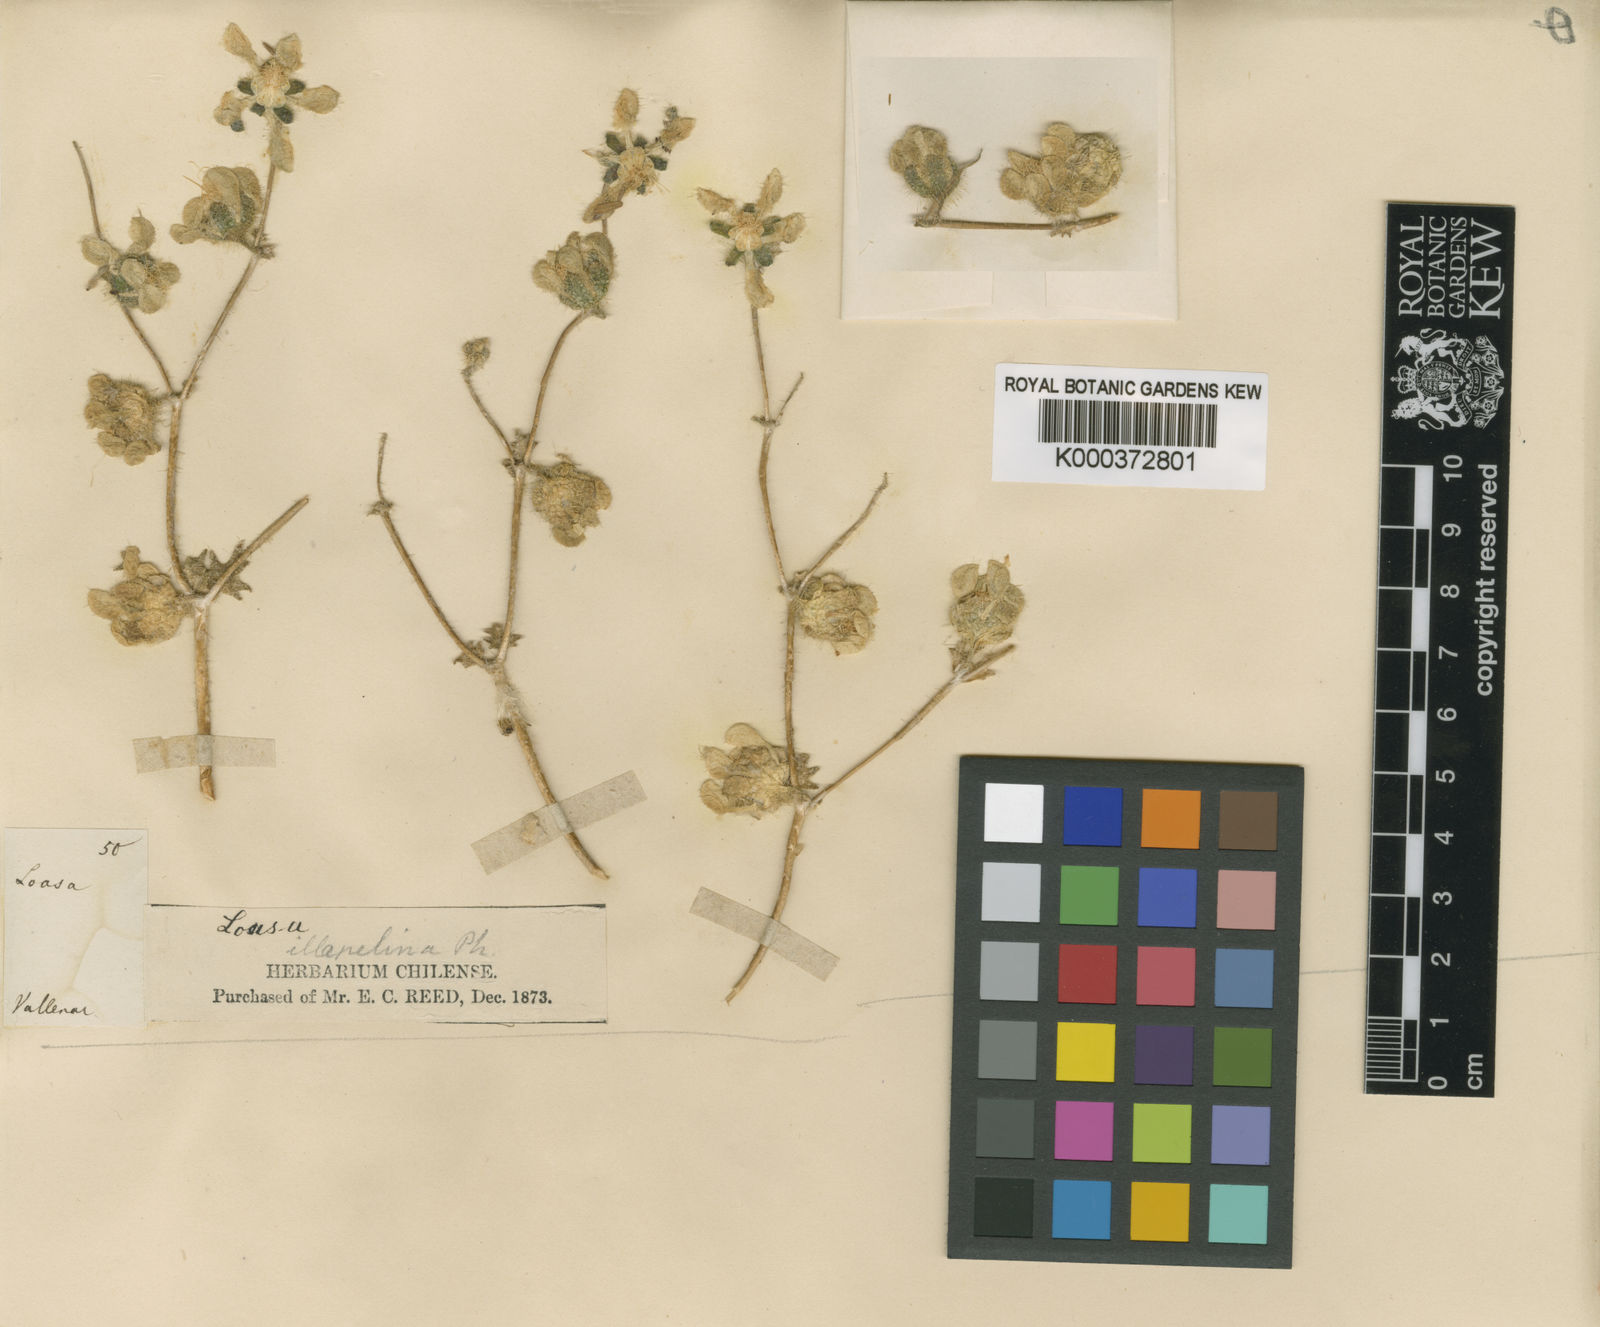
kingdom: Plantae
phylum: Tracheophyta
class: Magnoliopsida
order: Cornales
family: Loasaceae
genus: Loasa
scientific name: Loasa illapelina
